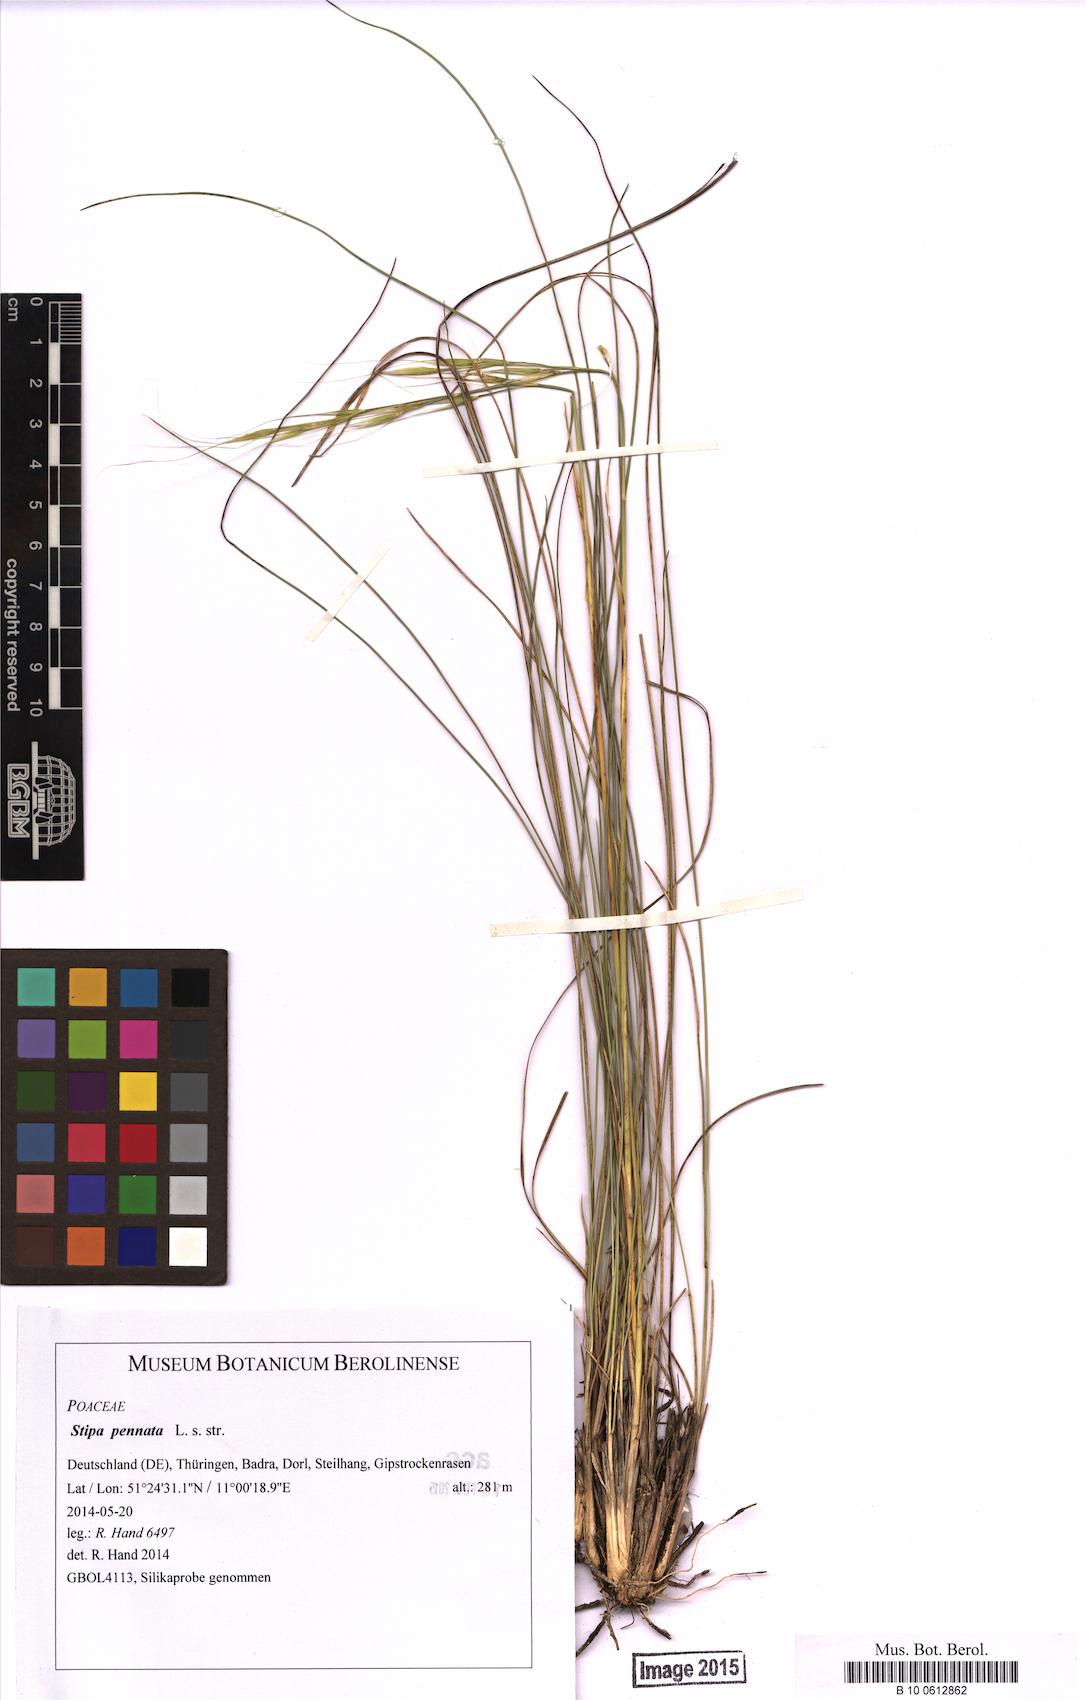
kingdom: Plantae
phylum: Tracheophyta
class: Liliopsida
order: Poales
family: Poaceae
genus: Stipa
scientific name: Stipa pennata
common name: European feather grass
